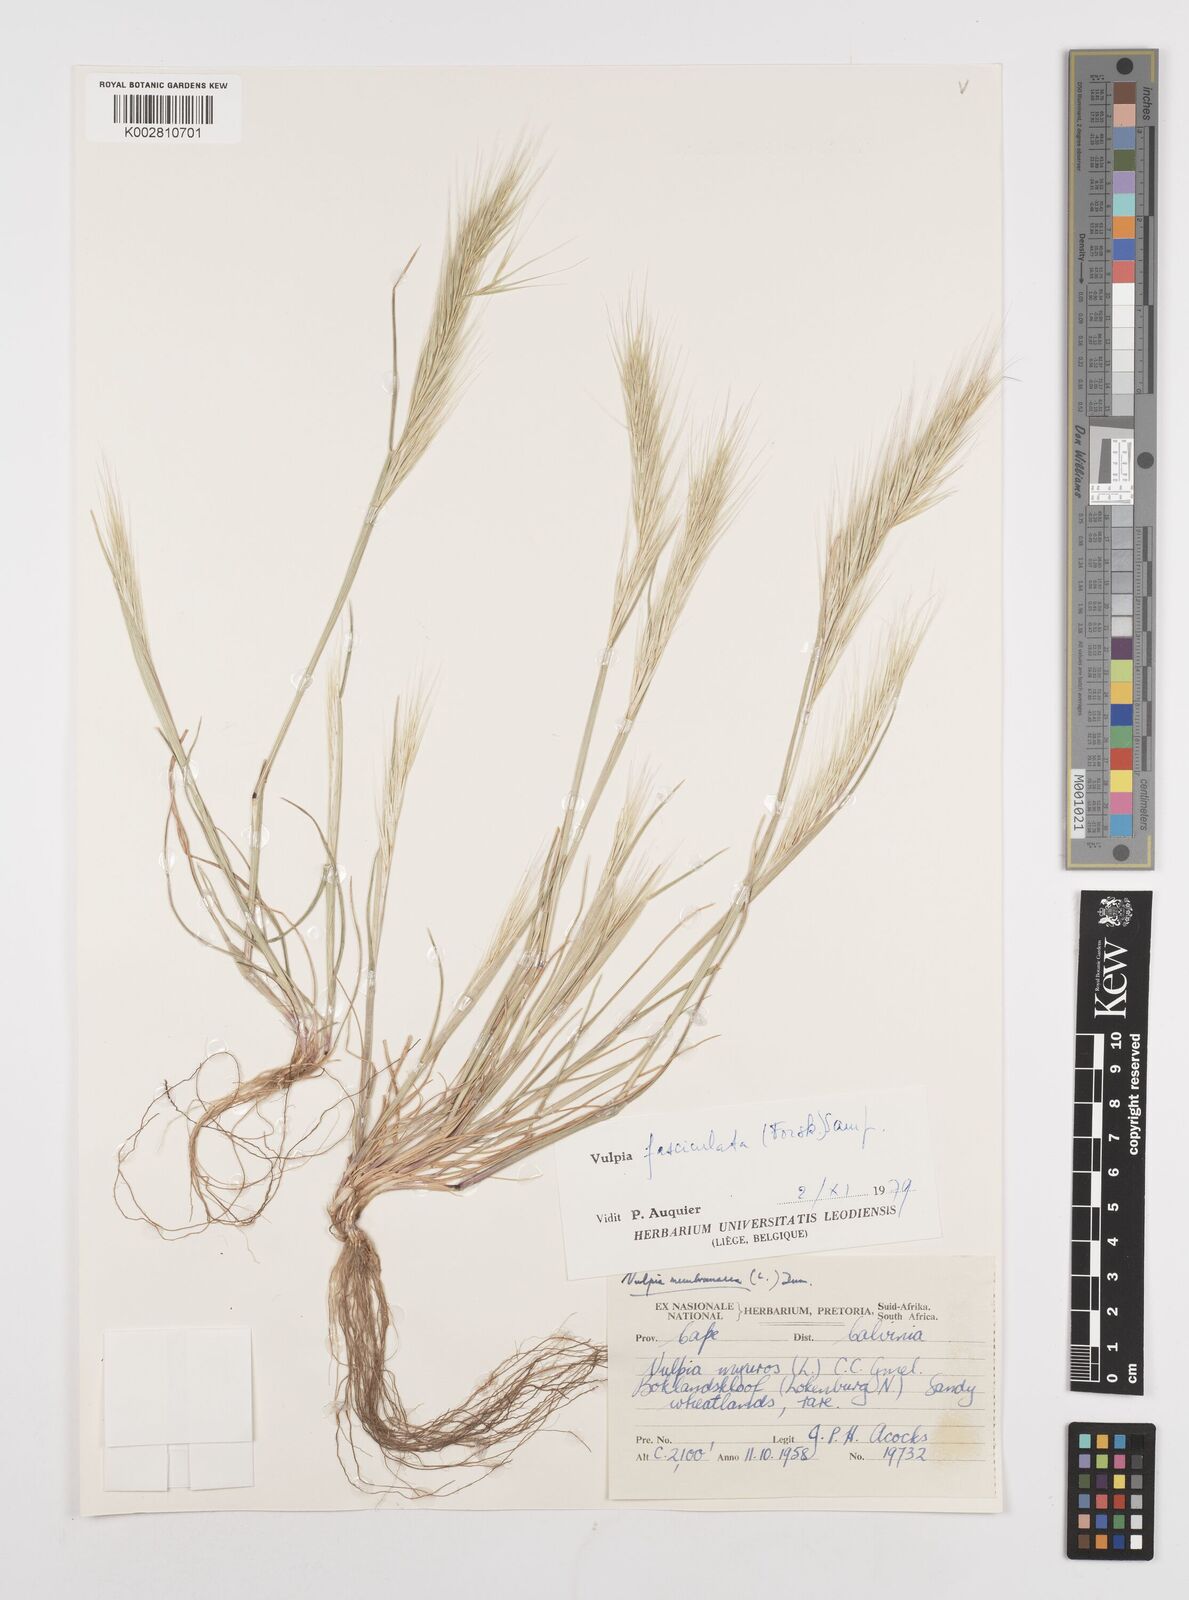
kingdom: Plantae
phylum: Tracheophyta
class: Liliopsida
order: Poales
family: Poaceae
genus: Festuca
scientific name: Festuca fasciculata
